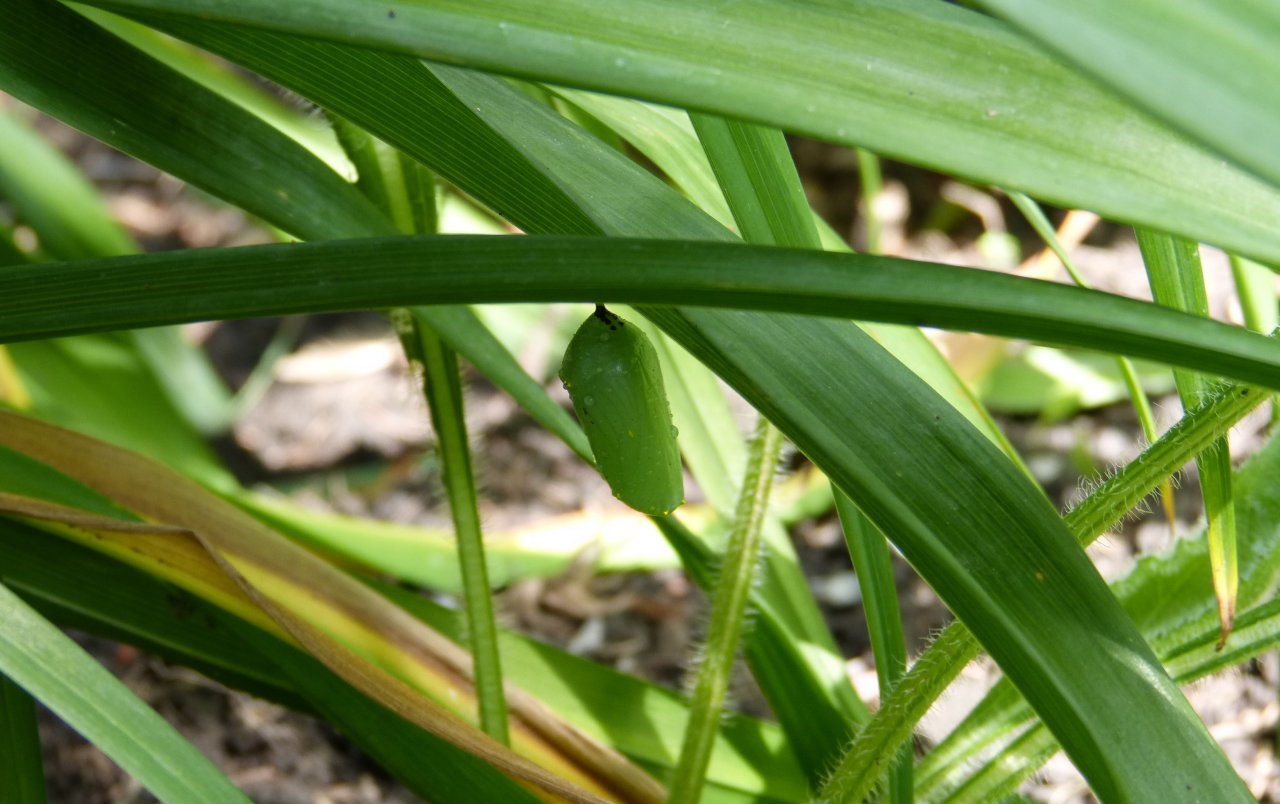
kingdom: Animalia
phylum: Arthropoda
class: Insecta
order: Lepidoptera
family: Nymphalidae
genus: Danaus
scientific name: Danaus plexippus
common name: Monarch
